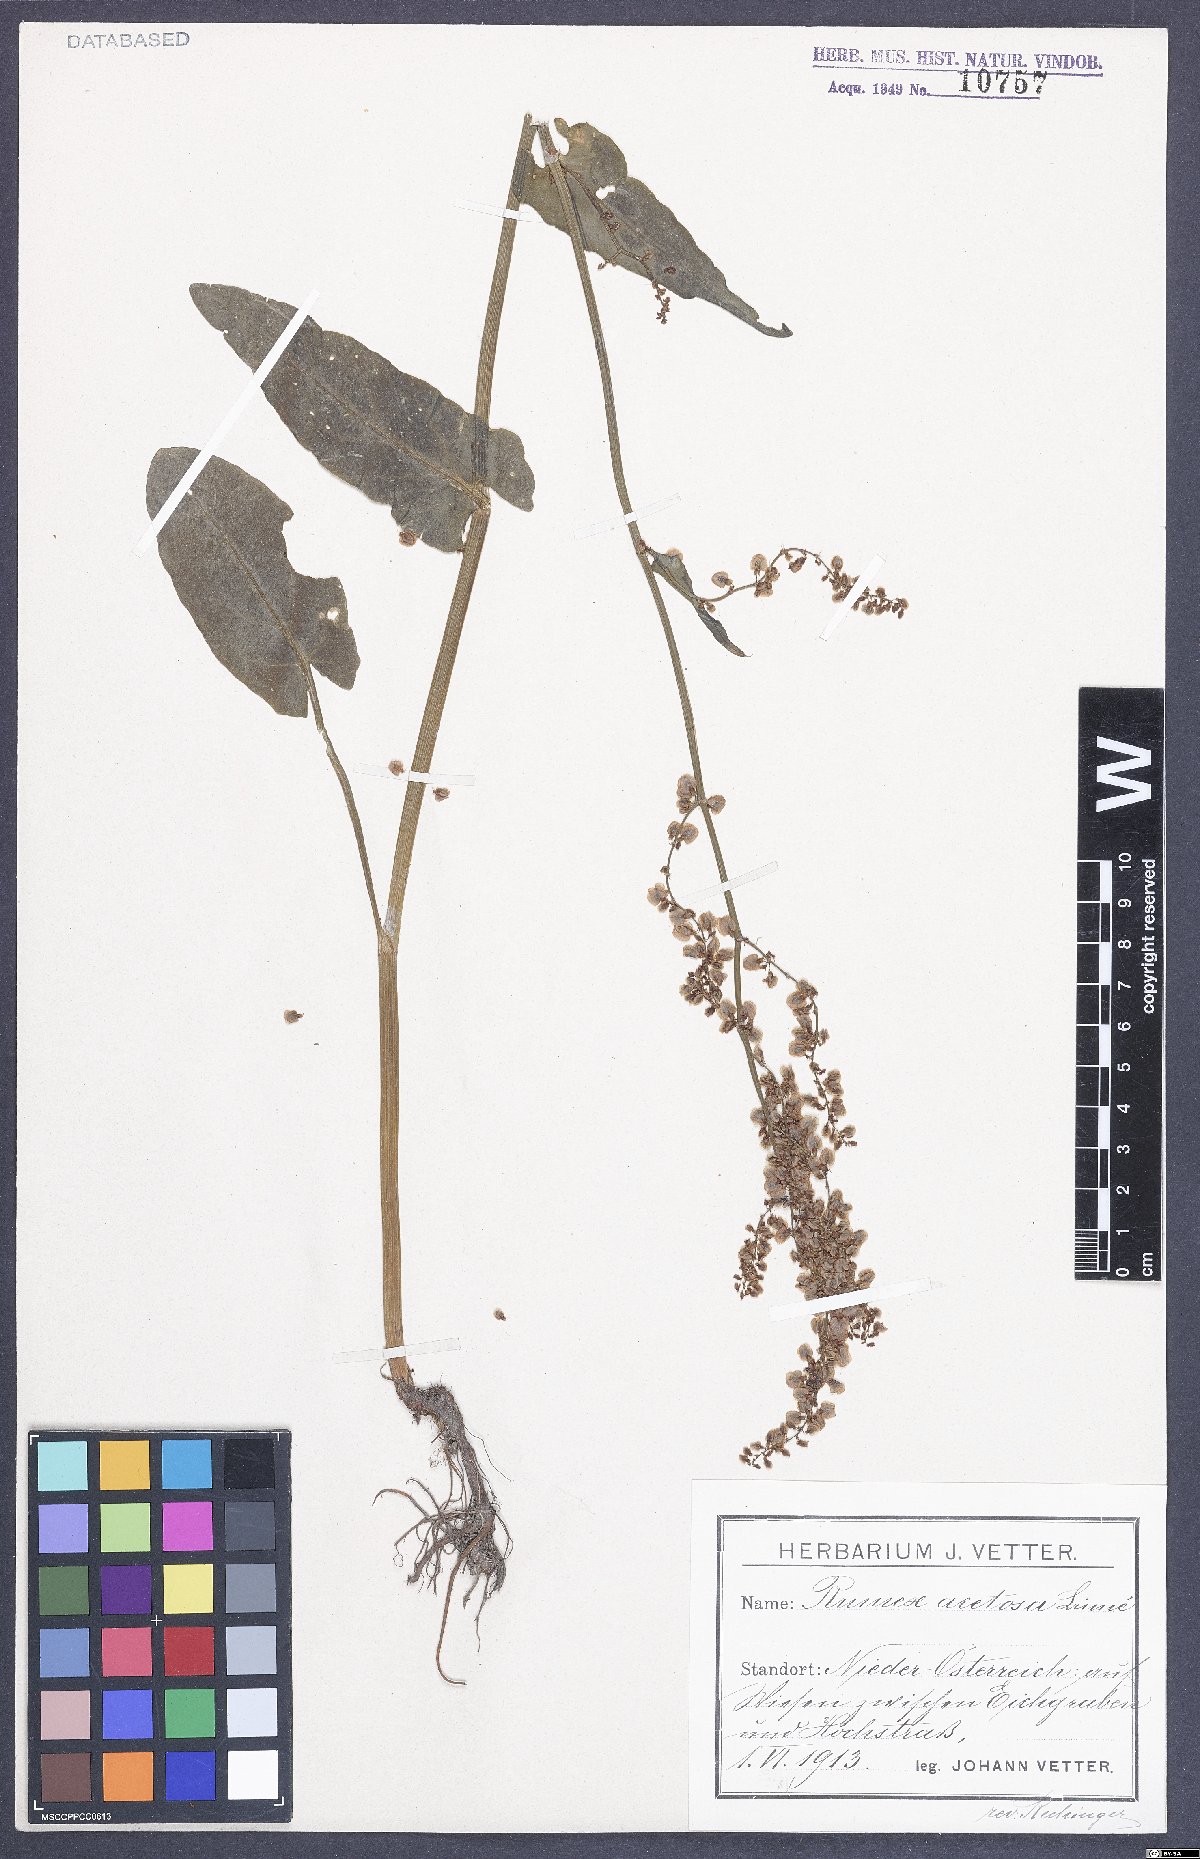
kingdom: Plantae
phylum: Tracheophyta
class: Magnoliopsida
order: Caryophyllales
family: Polygonaceae
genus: Rumex
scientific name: Rumex acetosa
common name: Garden sorrel
